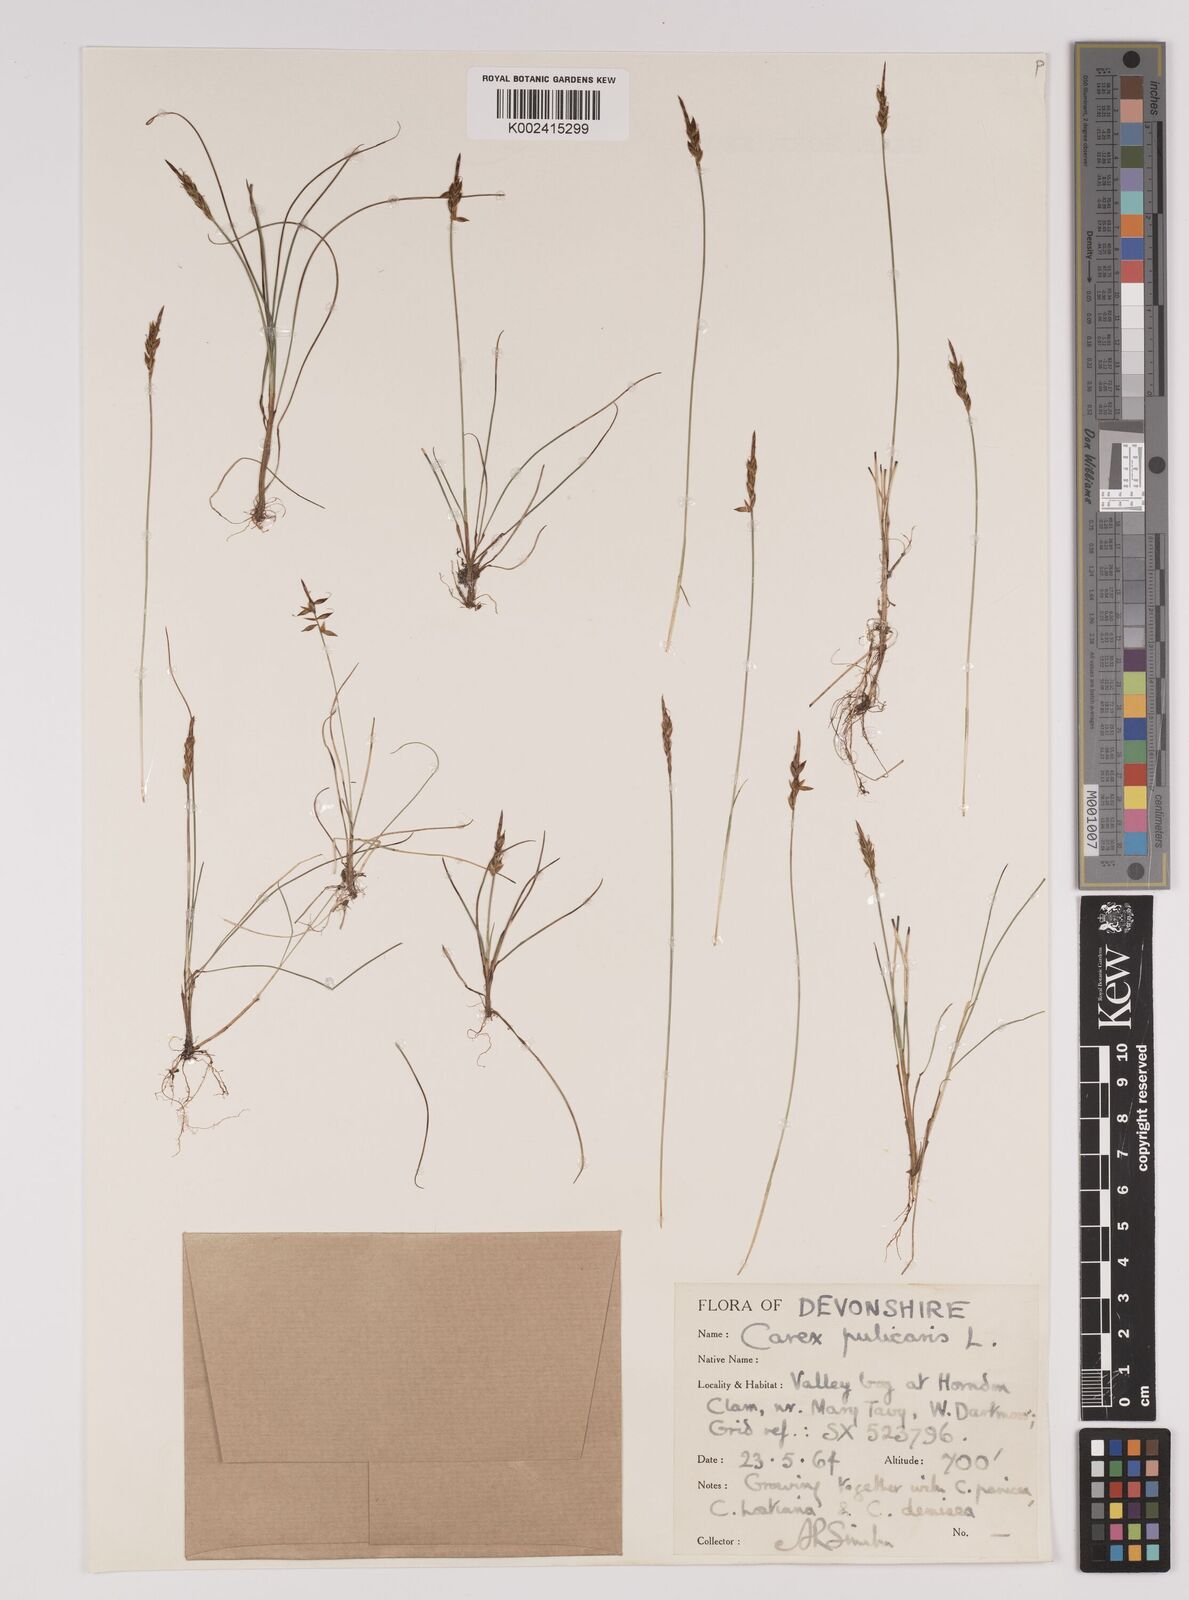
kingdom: Plantae
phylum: Tracheophyta
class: Liliopsida
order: Poales
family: Cyperaceae
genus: Carex
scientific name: Carex pulicaris
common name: Flea sedge
